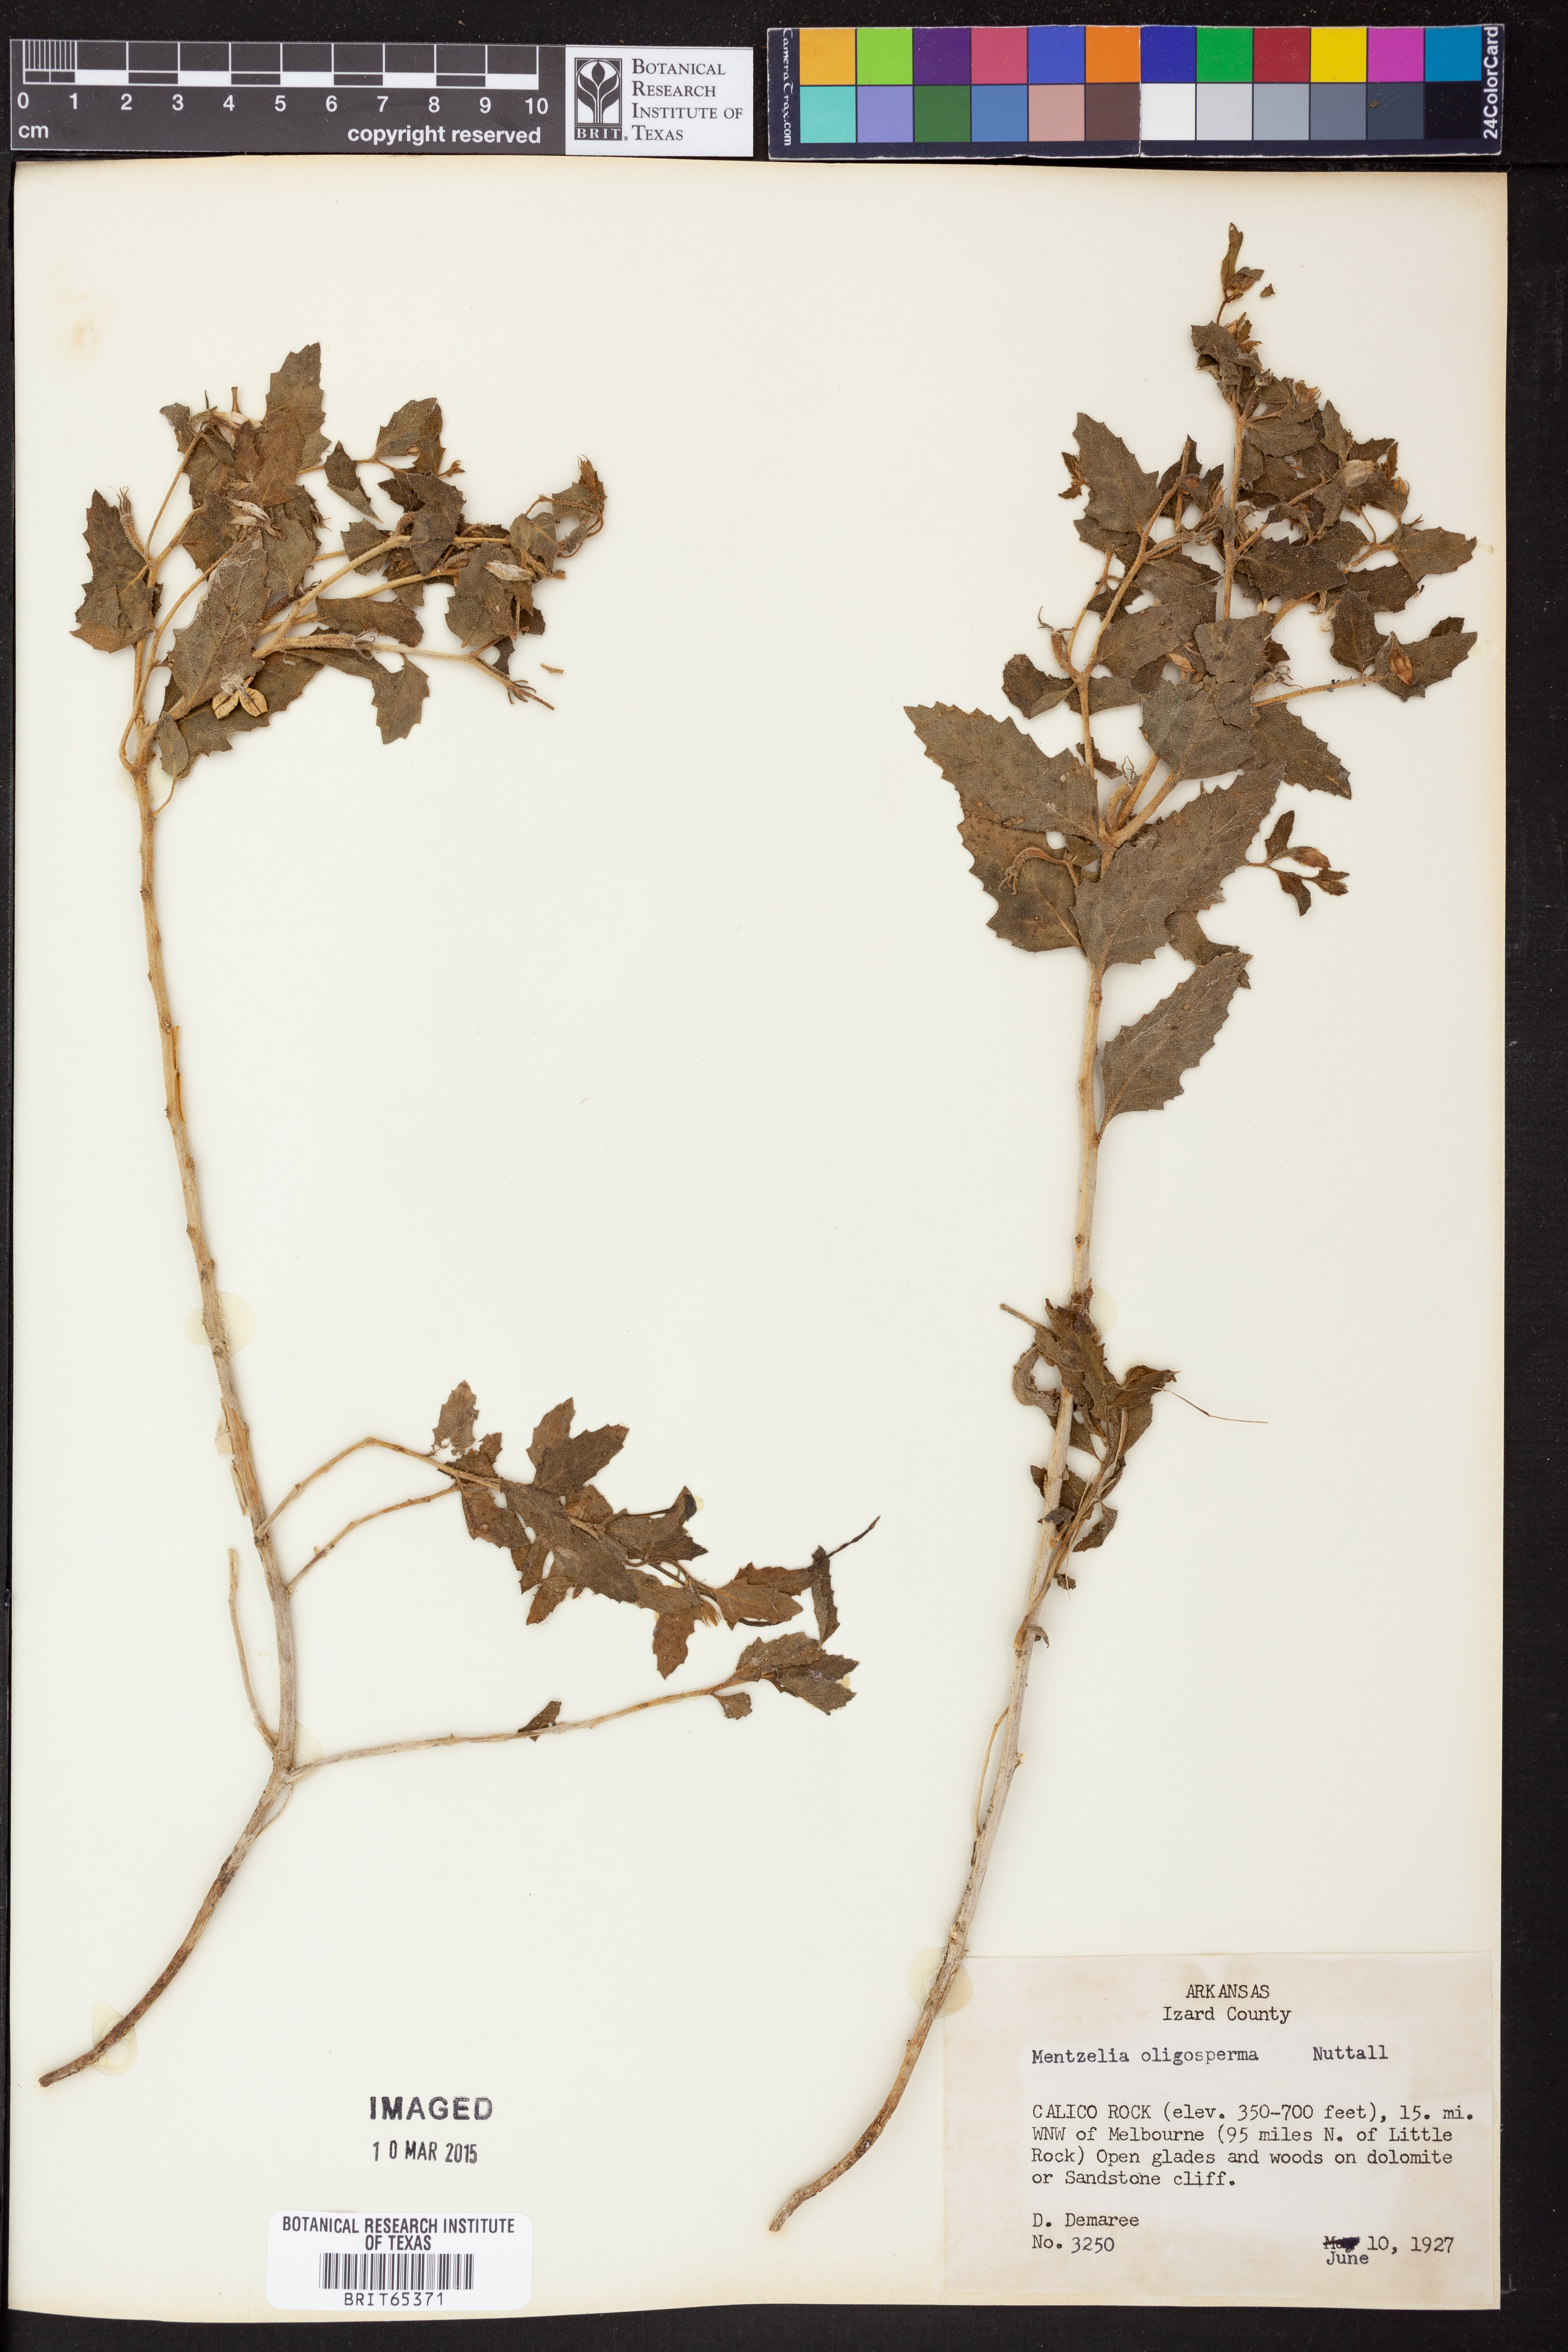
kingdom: Plantae
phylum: Tracheophyta
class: Magnoliopsida
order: Cornales
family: Loasaceae
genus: Mentzelia
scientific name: Mentzelia oligosperma
